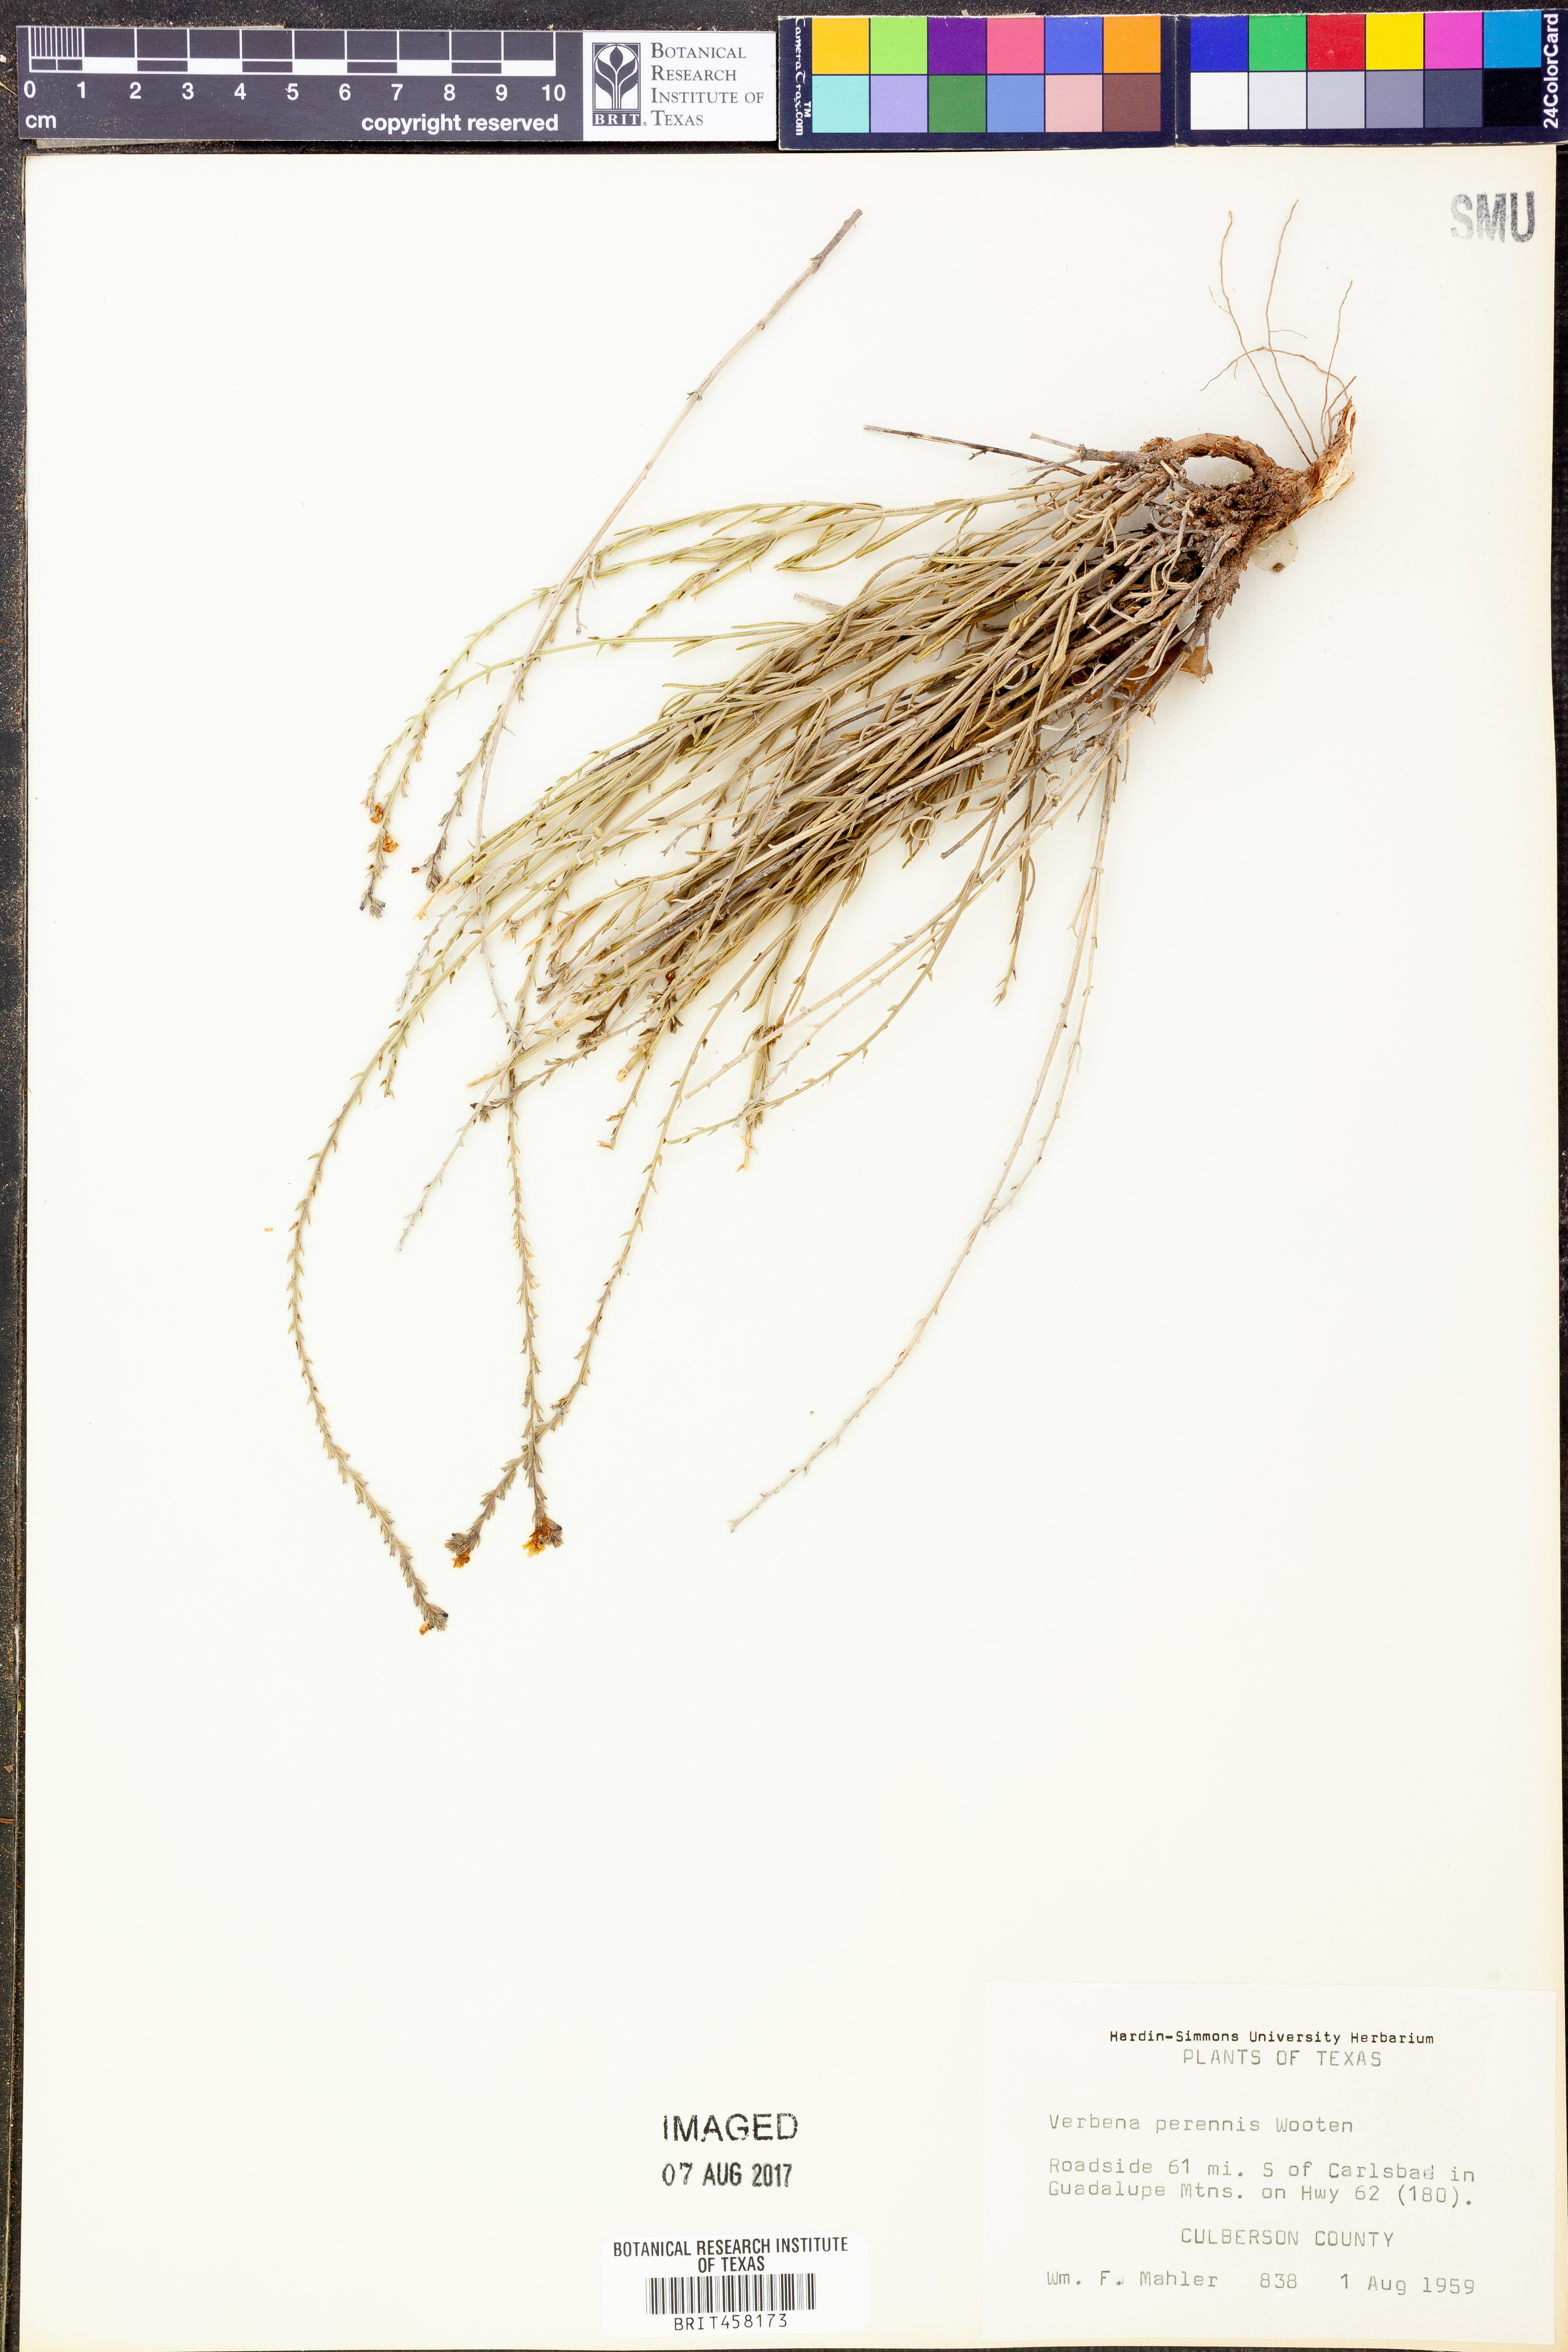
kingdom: Plantae
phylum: Tracheophyta
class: Magnoliopsida
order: Lamiales
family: Verbenaceae
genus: Verbena
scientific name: Verbena perennis
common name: Pin-leaf vervain
